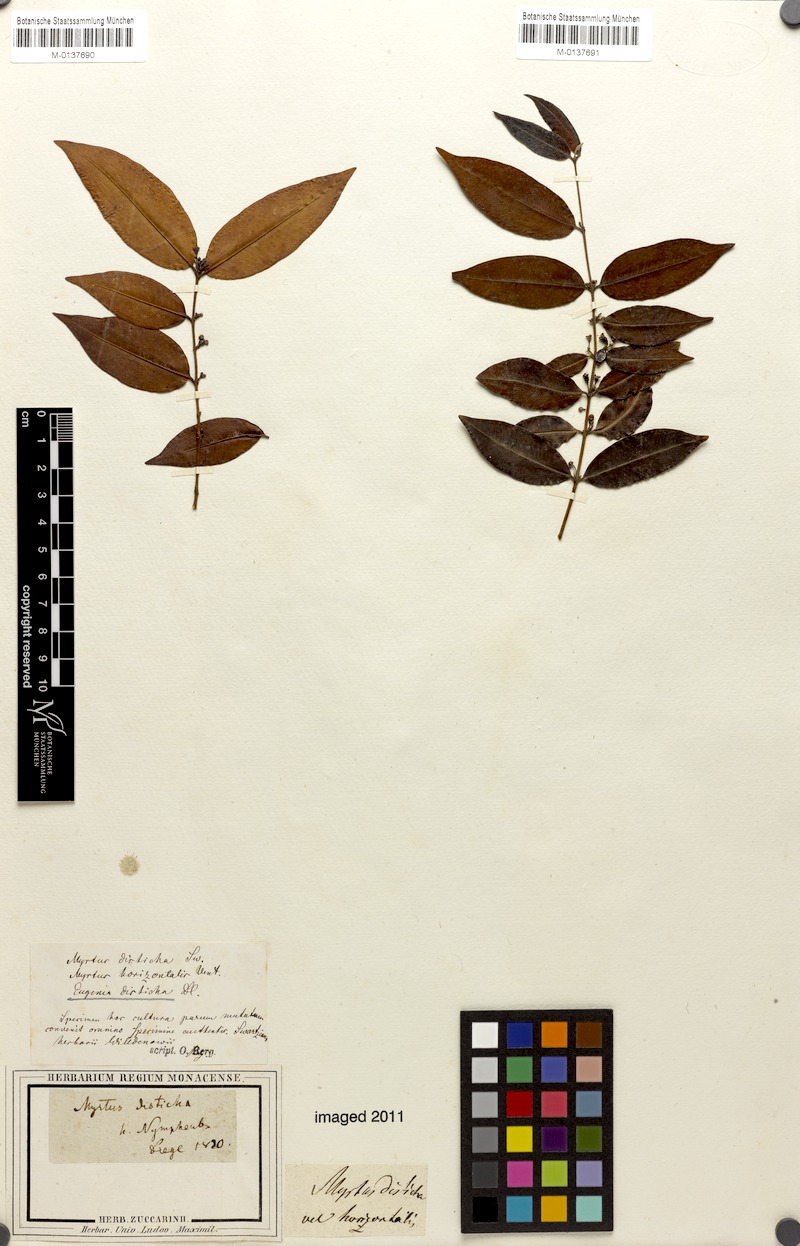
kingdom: Plantae
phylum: Tracheophyta
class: Magnoliopsida
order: Myrtales
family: Myrtaceae
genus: Eugenia
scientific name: Eugenia disticha
